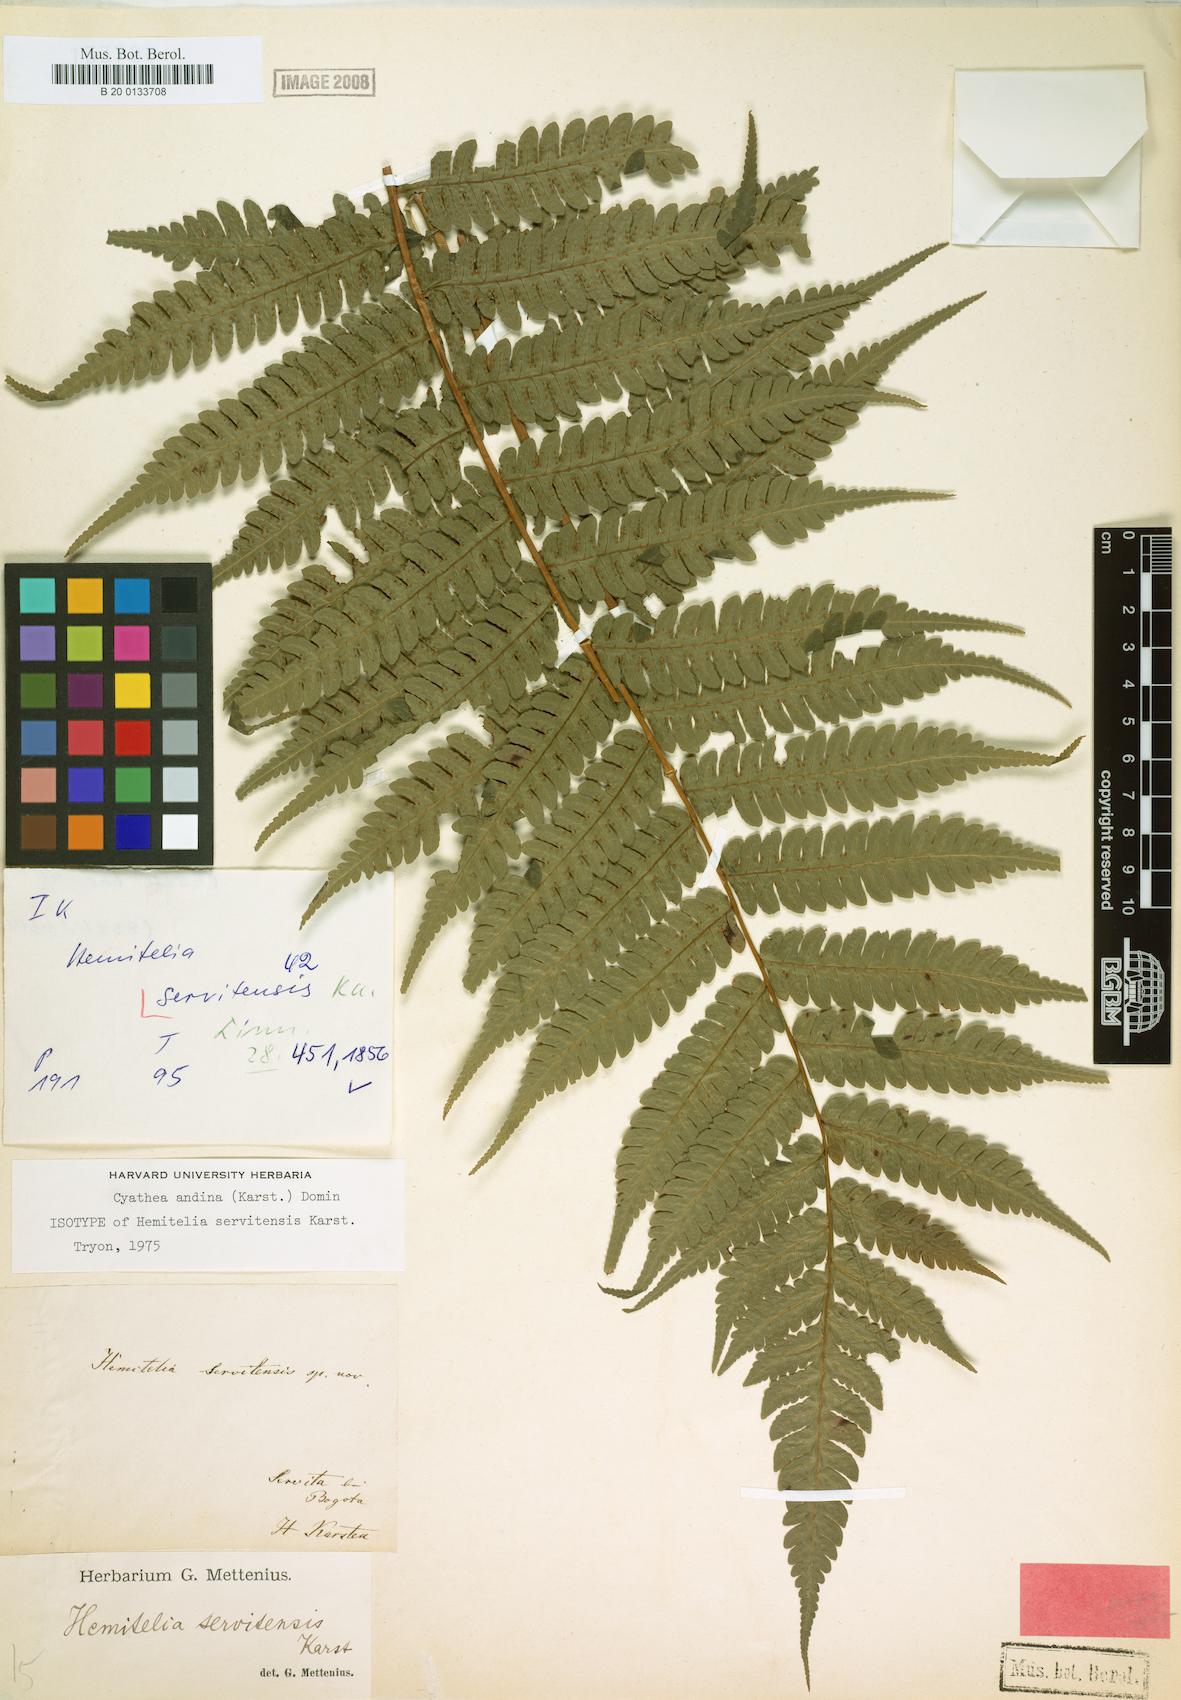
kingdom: Plantae
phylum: Tracheophyta
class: Polypodiopsida
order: Cyatheales
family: Cyatheaceae
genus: Cyathea
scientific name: Cyathea andina
